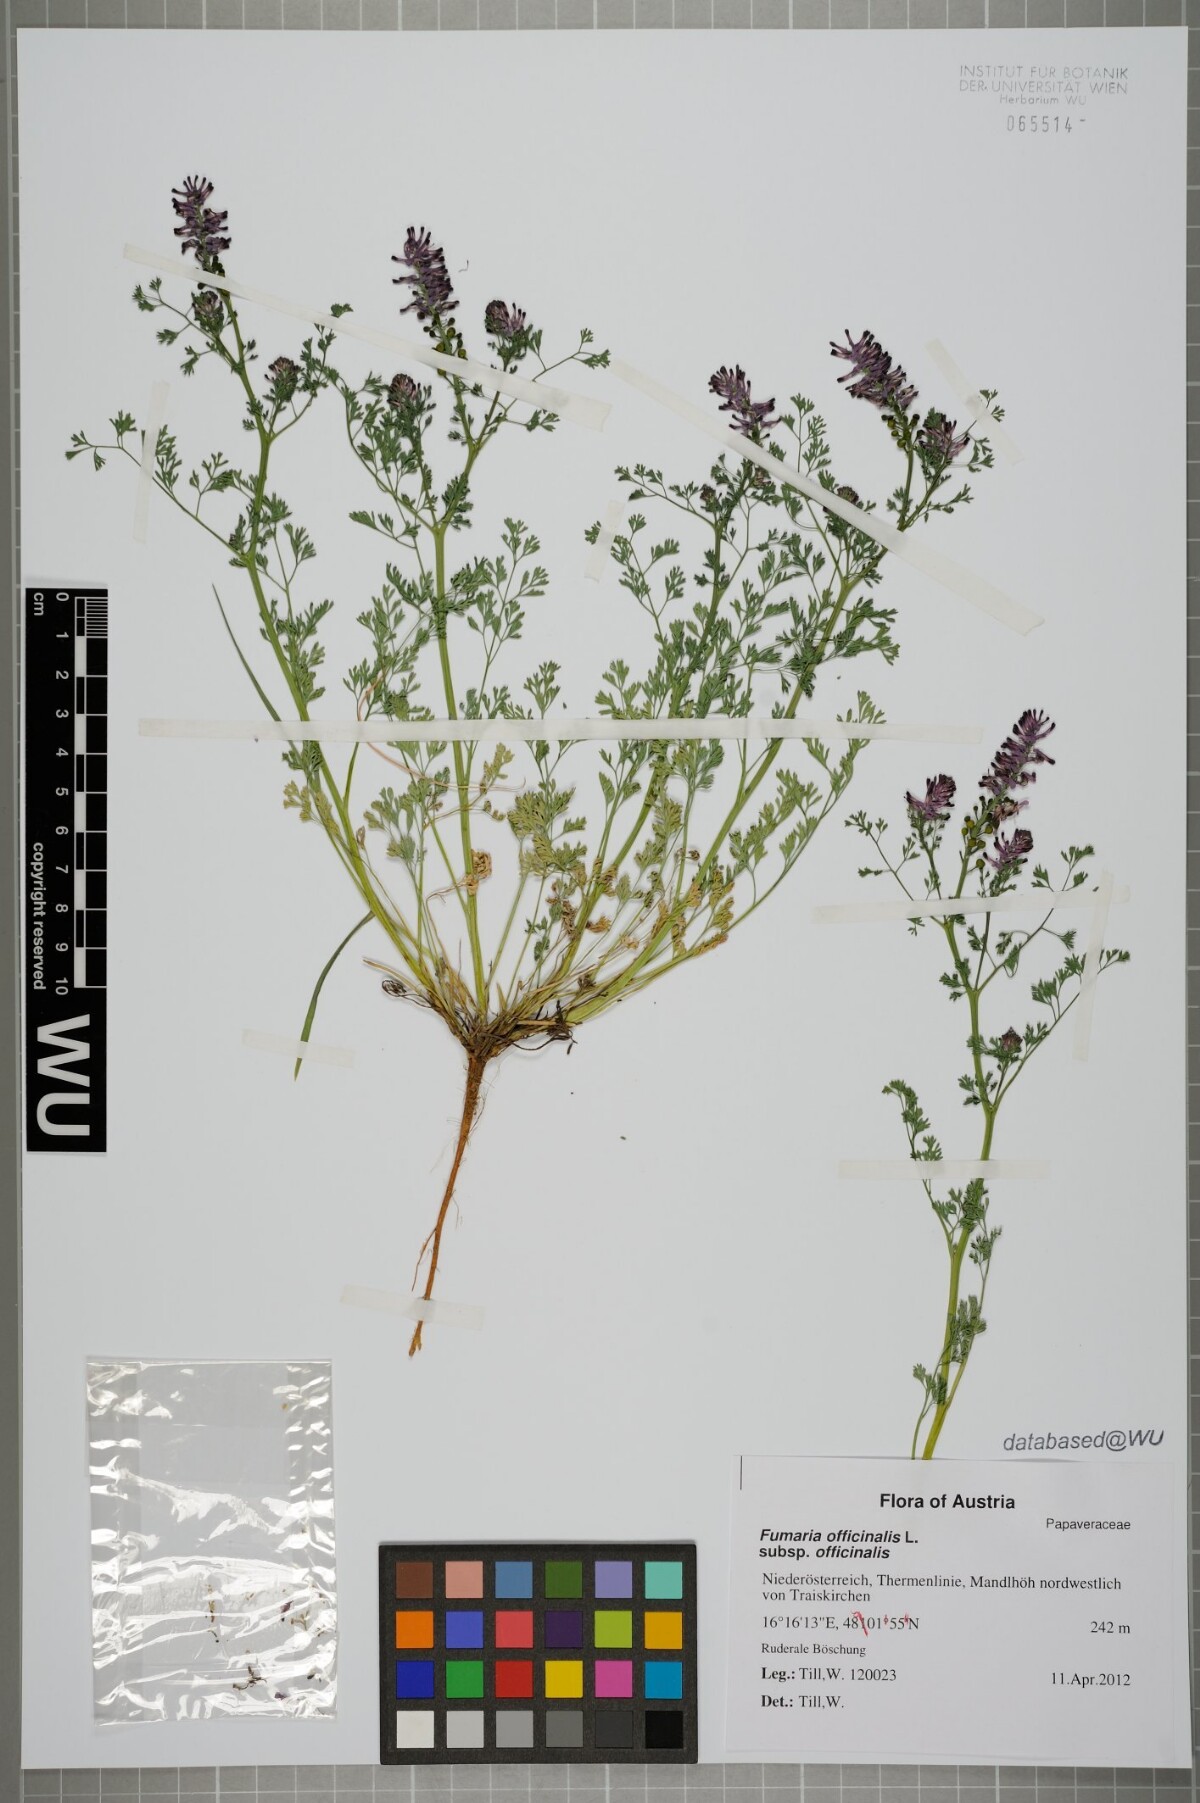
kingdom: Plantae
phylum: Tracheophyta
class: Magnoliopsida
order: Ranunculales
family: Papaveraceae
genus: Fumaria
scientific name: Fumaria officinalis
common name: Common fumitory
